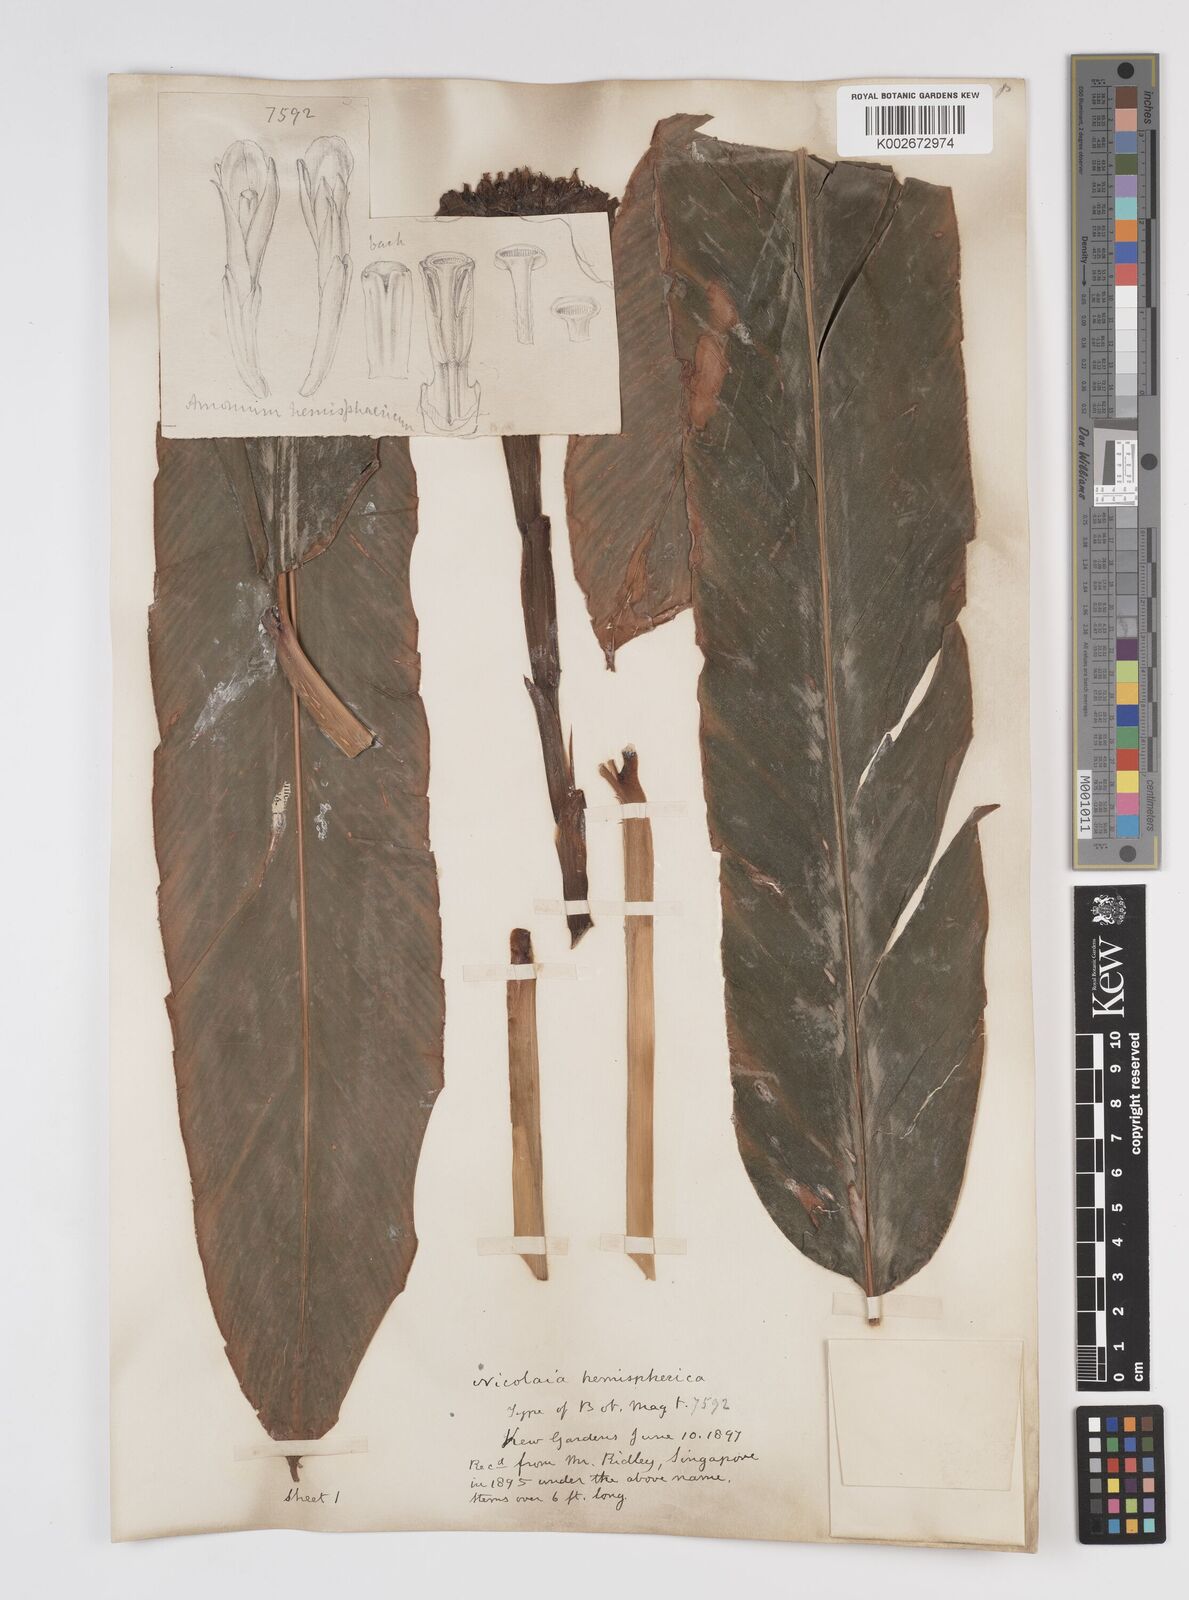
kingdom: Plantae
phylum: Tracheophyta
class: Liliopsida
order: Zingiberales
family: Zingiberaceae
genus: Etlingera
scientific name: Etlingera hemisphaerica
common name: Black tulip
